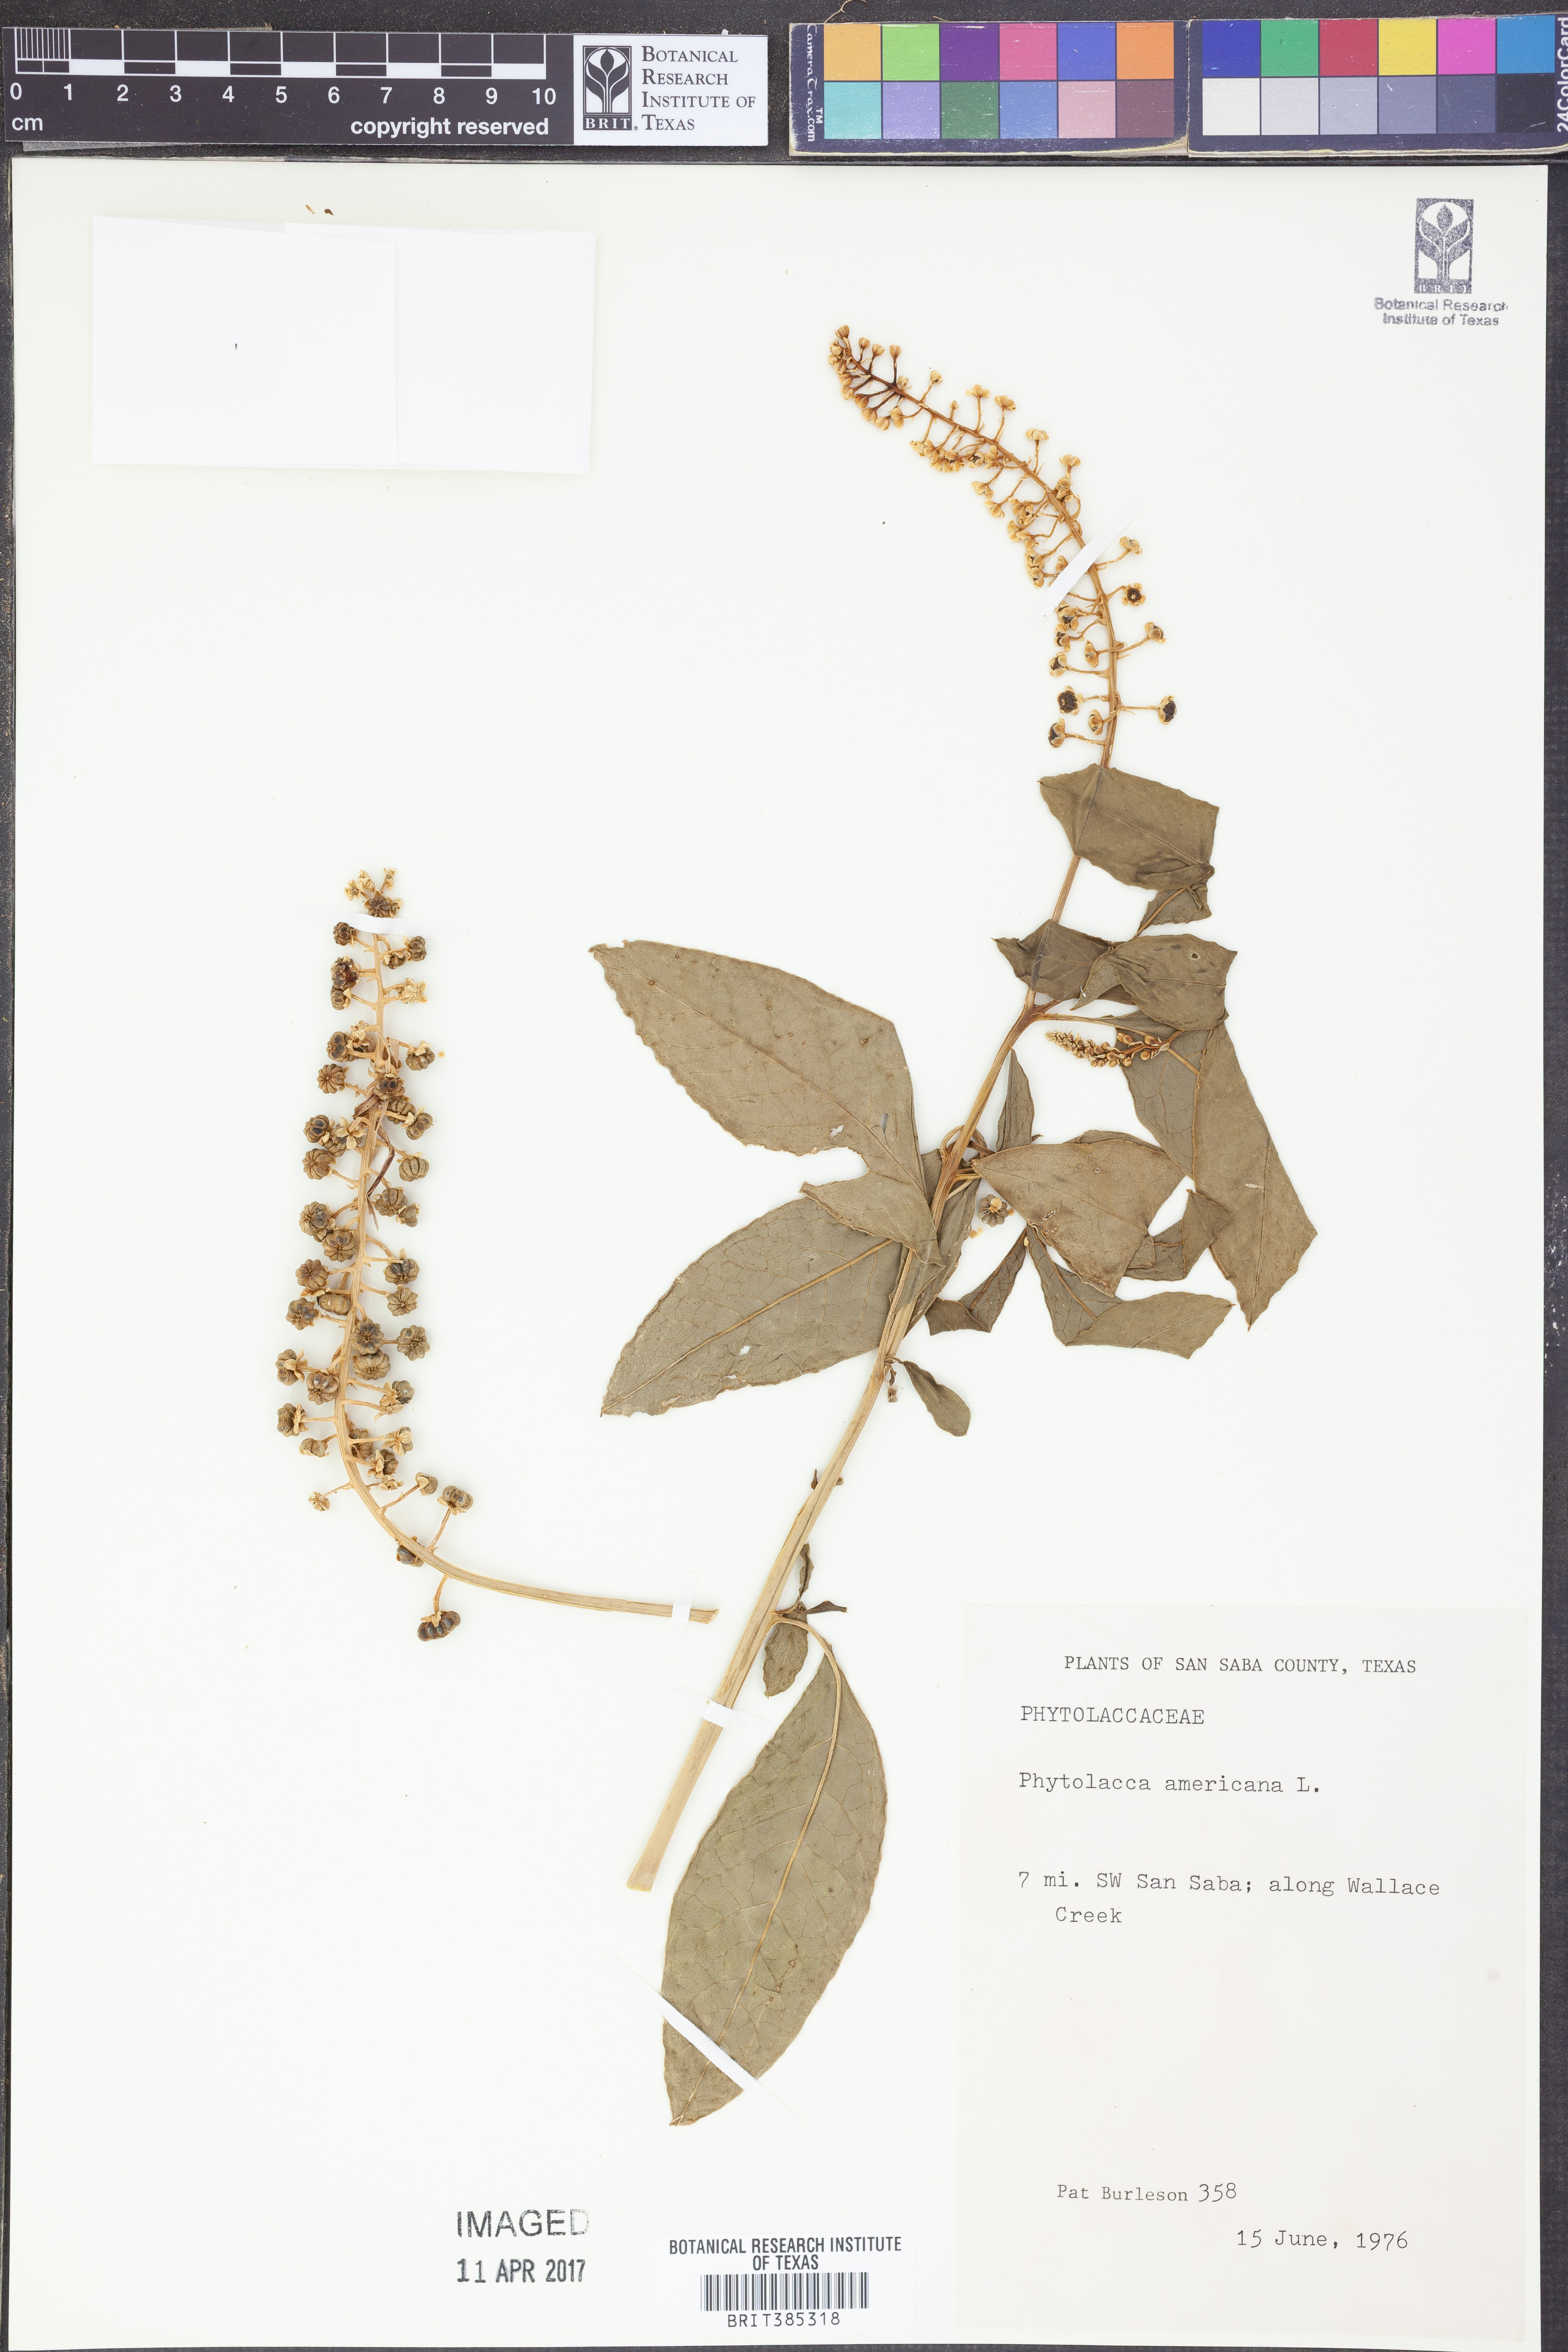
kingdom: Plantae
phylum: Tracheophyta
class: Magnoliopsida
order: Caryophyllales
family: Phytolaccaceae
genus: Phytolacca
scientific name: Phytolacca americana
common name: American pokeweed
